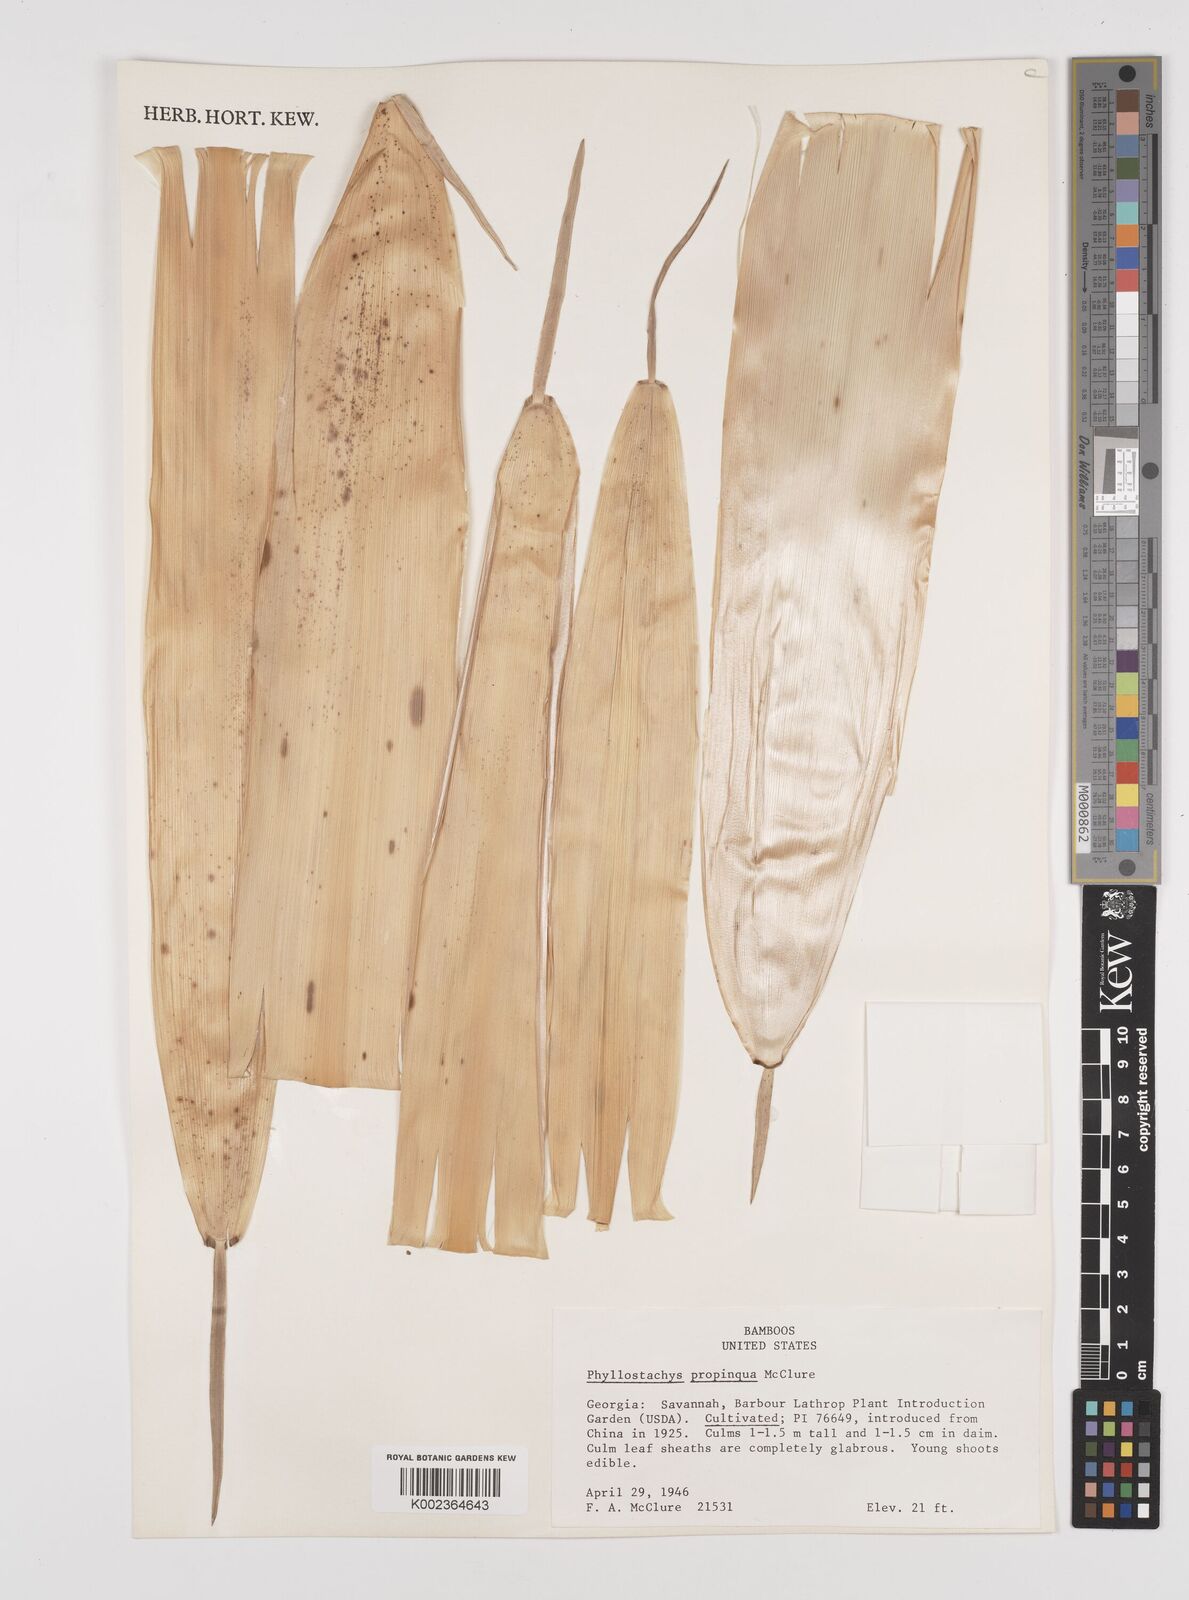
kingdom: Plantae
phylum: Tracheophyta
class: Liliopsida
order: Poales
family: Poaceae
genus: Phyllostachys
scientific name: Phyllostachys propinqua
